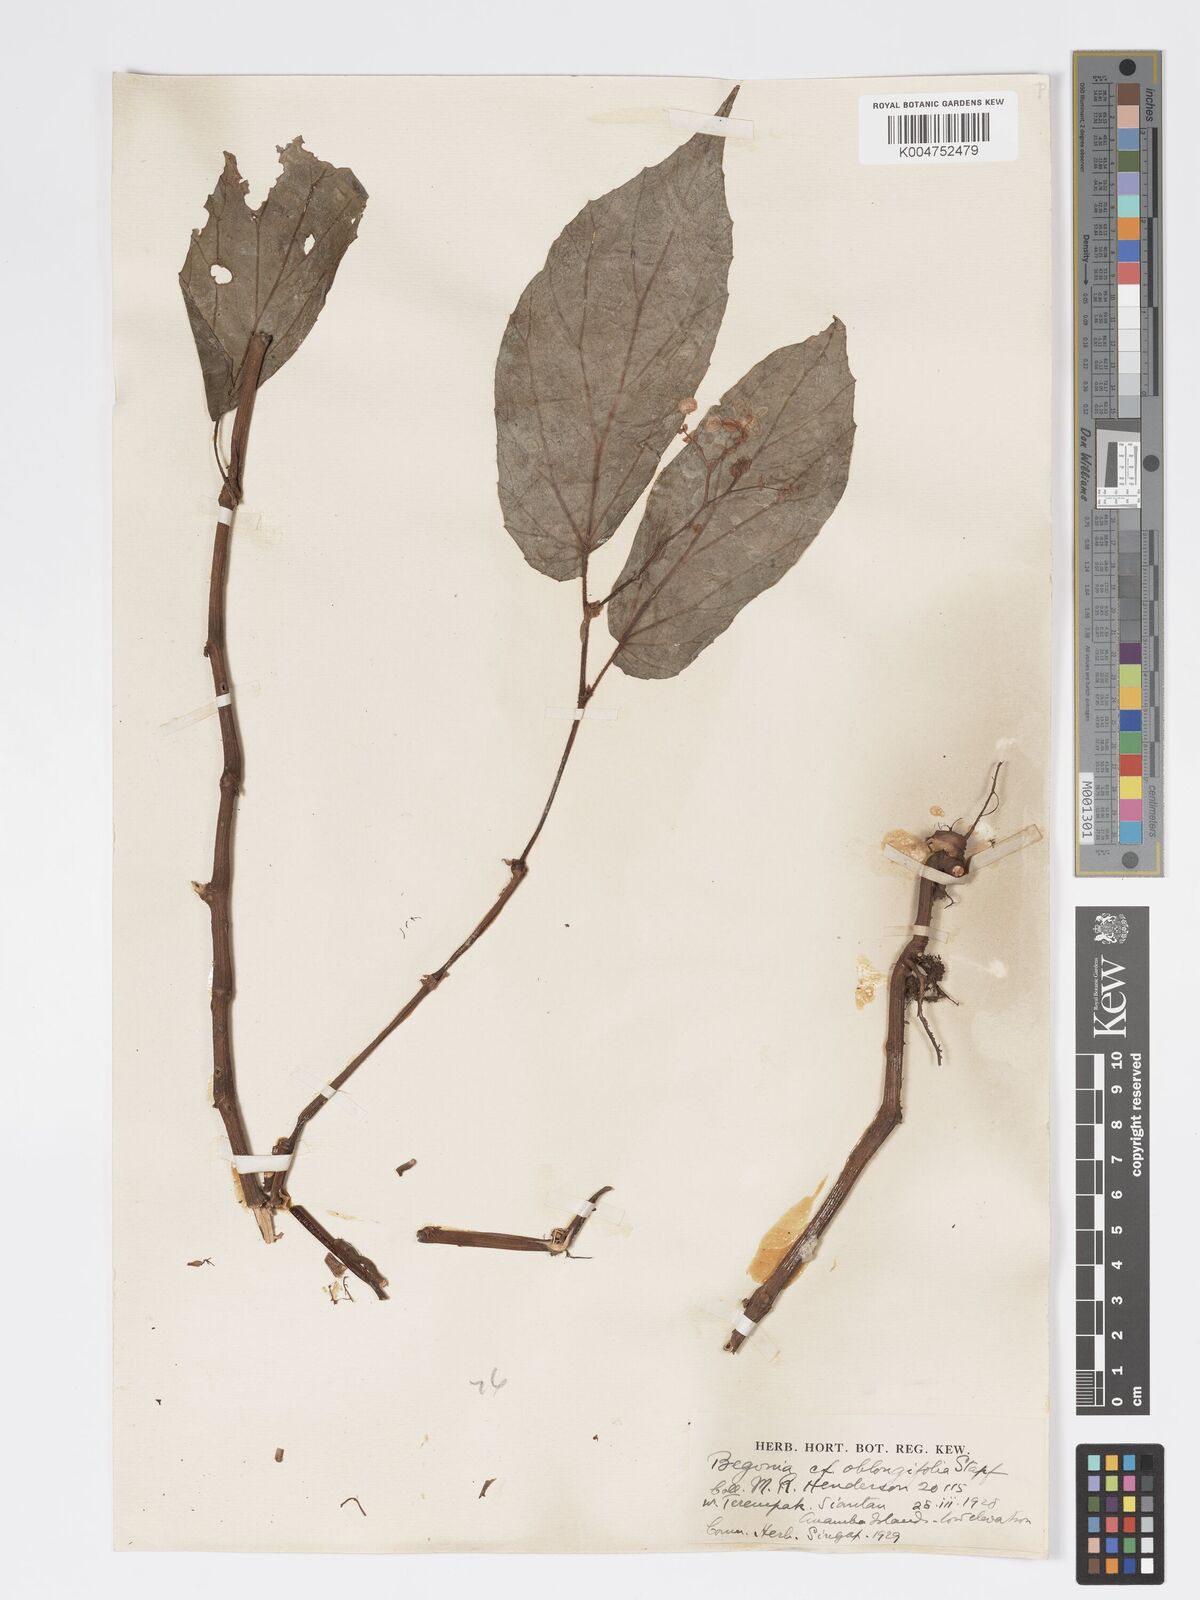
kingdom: Plantae
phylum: Tracheophyta
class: Magnoliopsida
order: Cucurbitales
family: Begoniaceae
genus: Begonia
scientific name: Begonia oblongifolia
